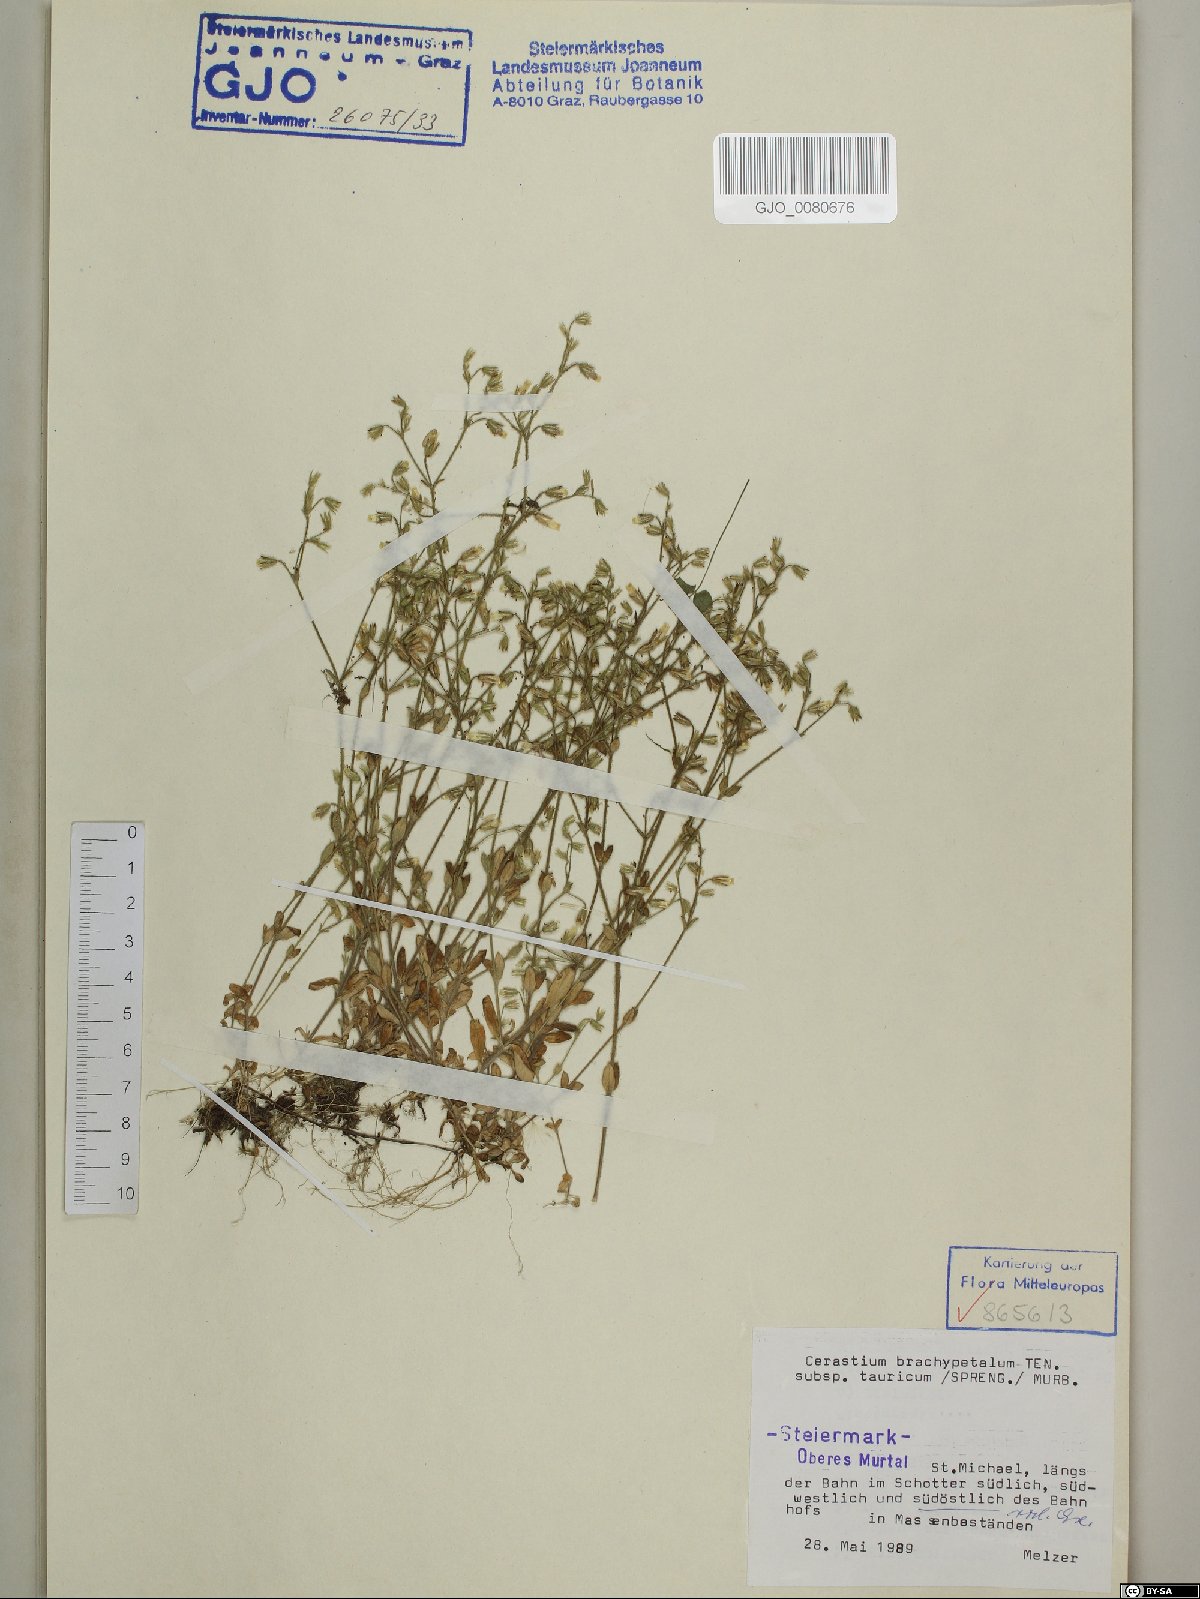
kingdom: Plantae
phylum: Tracheophyta
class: Magnoliopsida
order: Caryophyllales
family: Caryophyllaceae
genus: Cerastium
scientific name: Cerastium brachypetalum
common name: Grey mouse-ear
